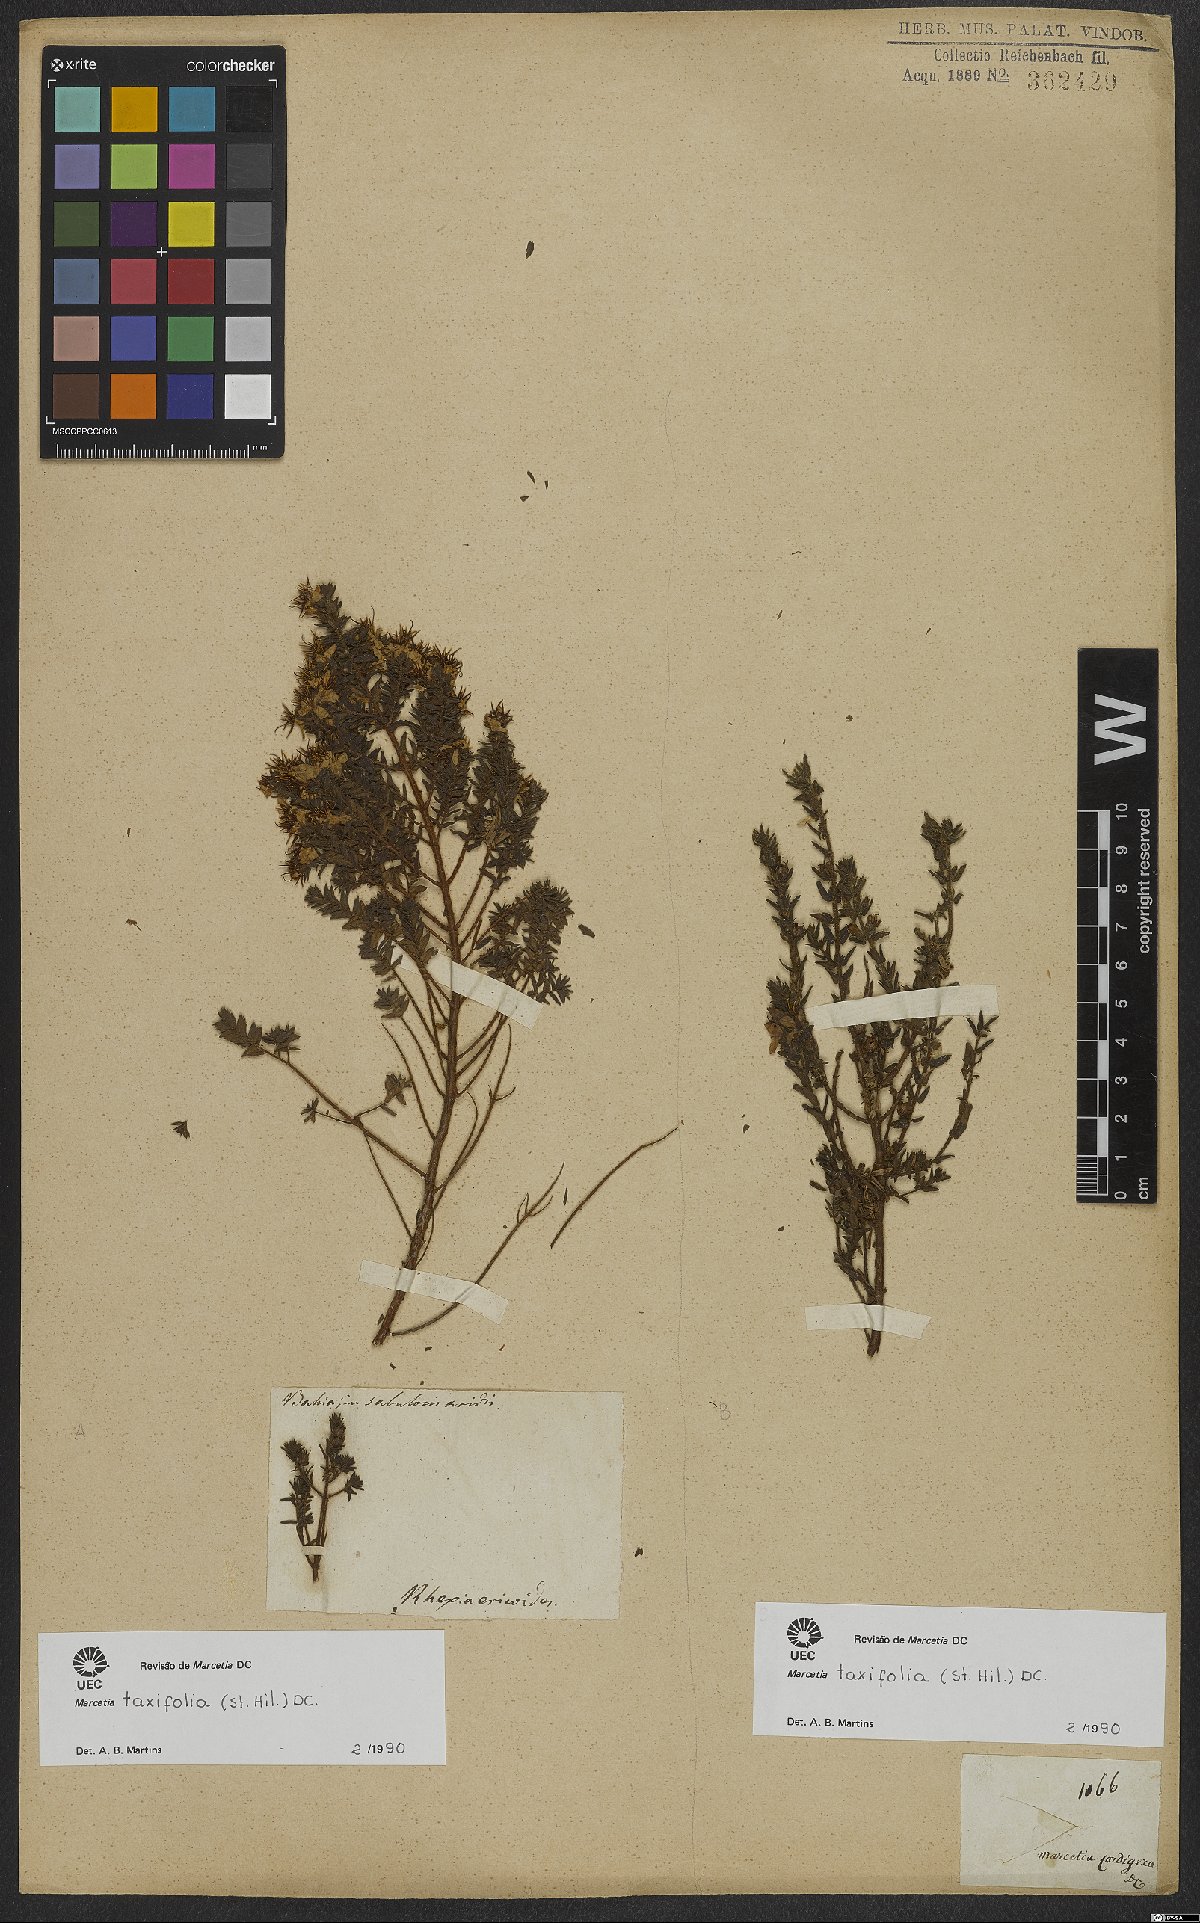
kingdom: Plantae
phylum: Tracheophyta
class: Magnoliopsida
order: Myrtales
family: Melastomataceae
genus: Marcetia
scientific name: Marcetia taxifolia
